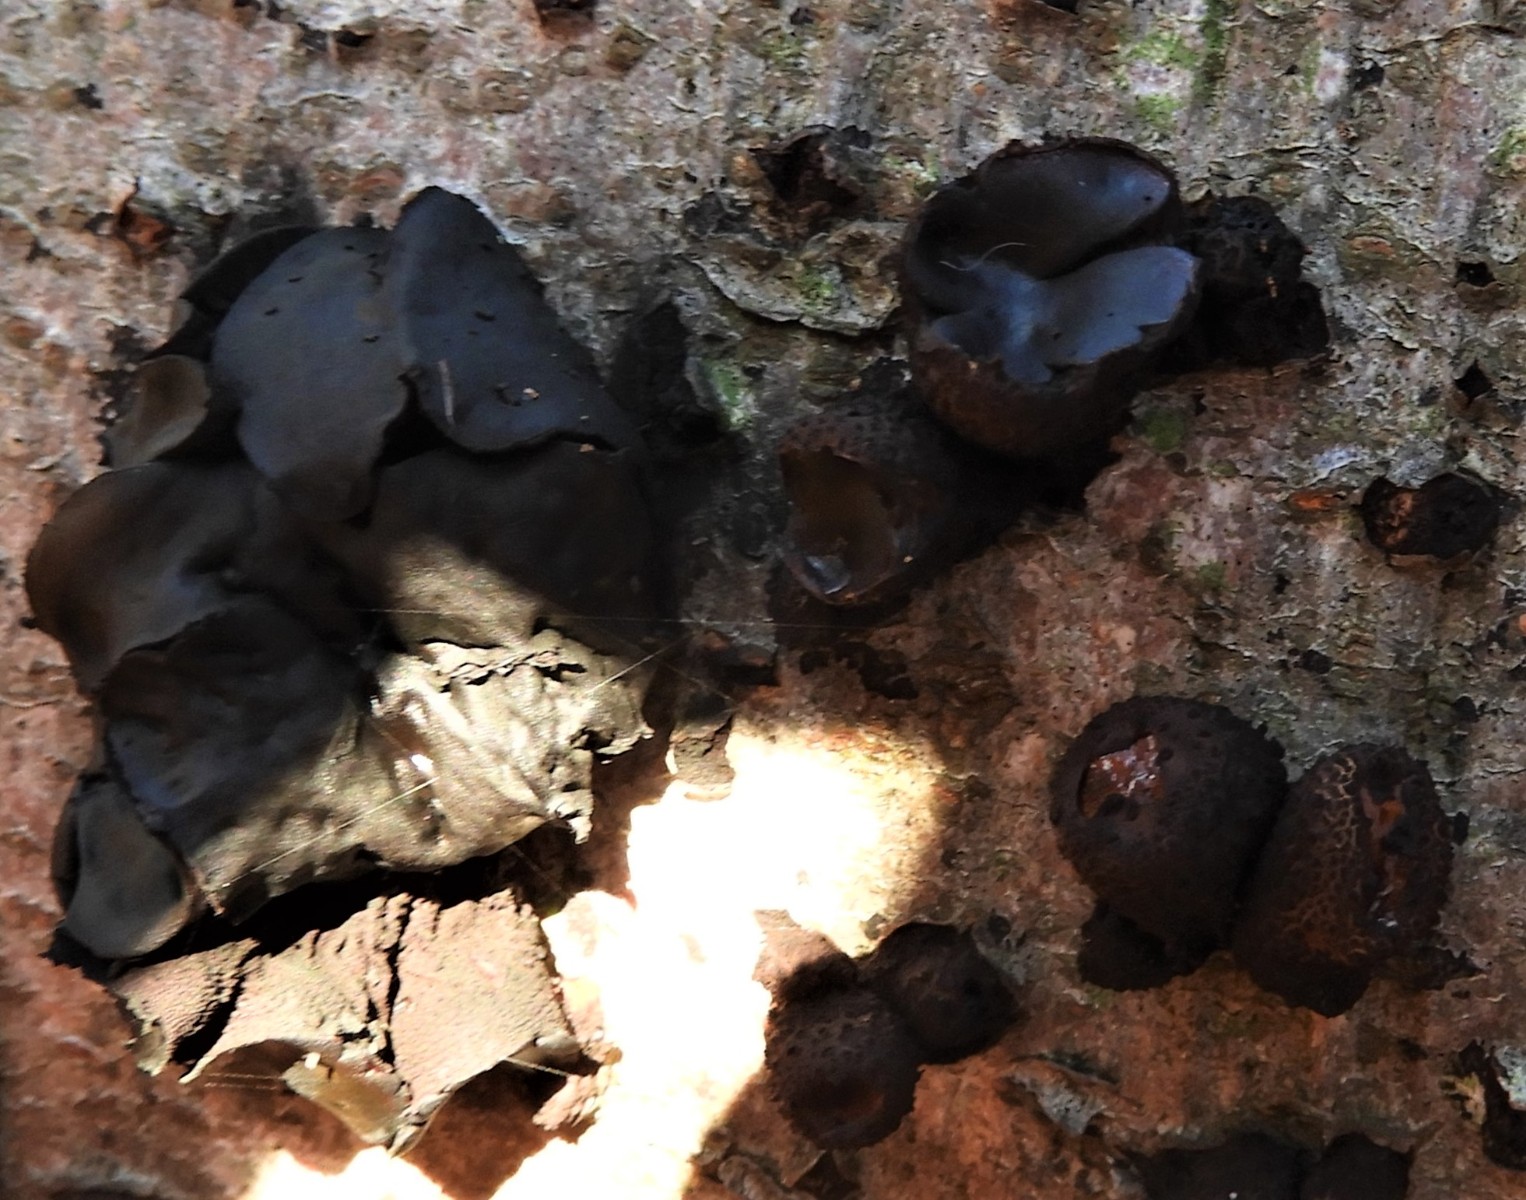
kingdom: Fungi
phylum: Ascomycota
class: Leotiomycetes
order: Phacidiales
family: Phacidiaceae
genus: Bulgaria
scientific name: Bulgaria inquinans
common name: afsmittende topsvamp
